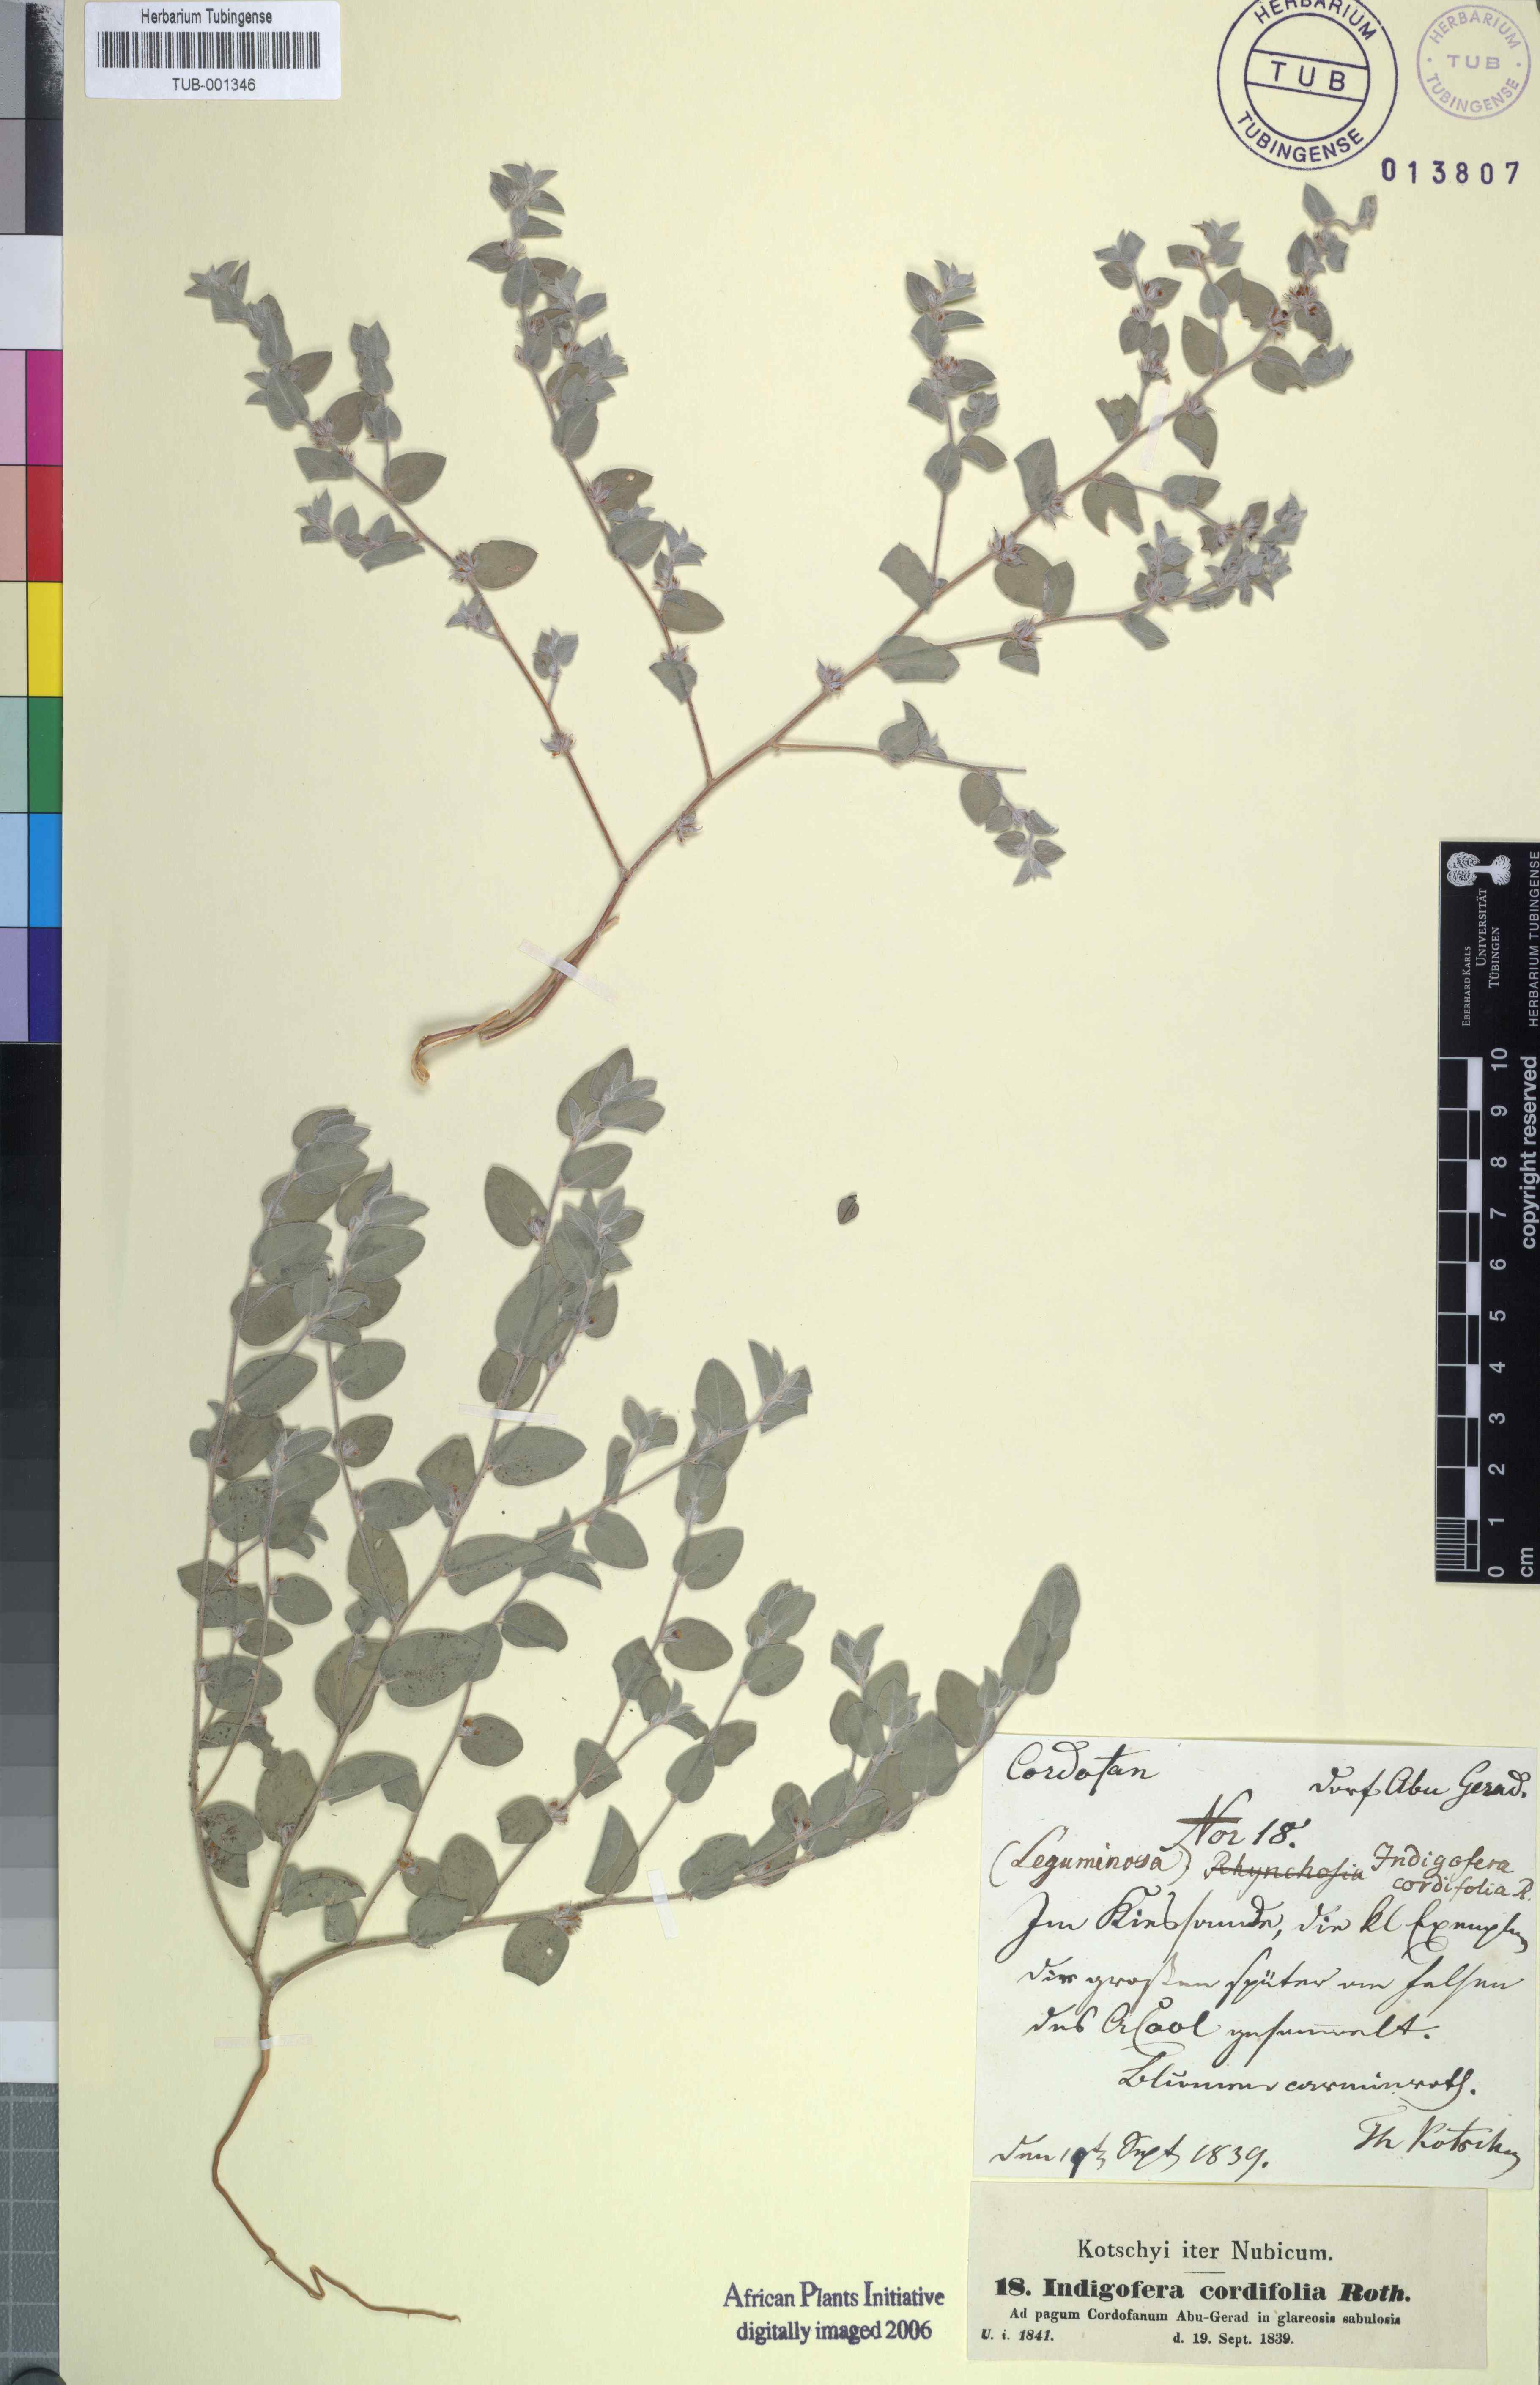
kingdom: Plantae
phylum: Tracheophyta
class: Magnoliopsida
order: Fabales
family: Fabaceae
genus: Indigofera
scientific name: Indigofera cordifolia
